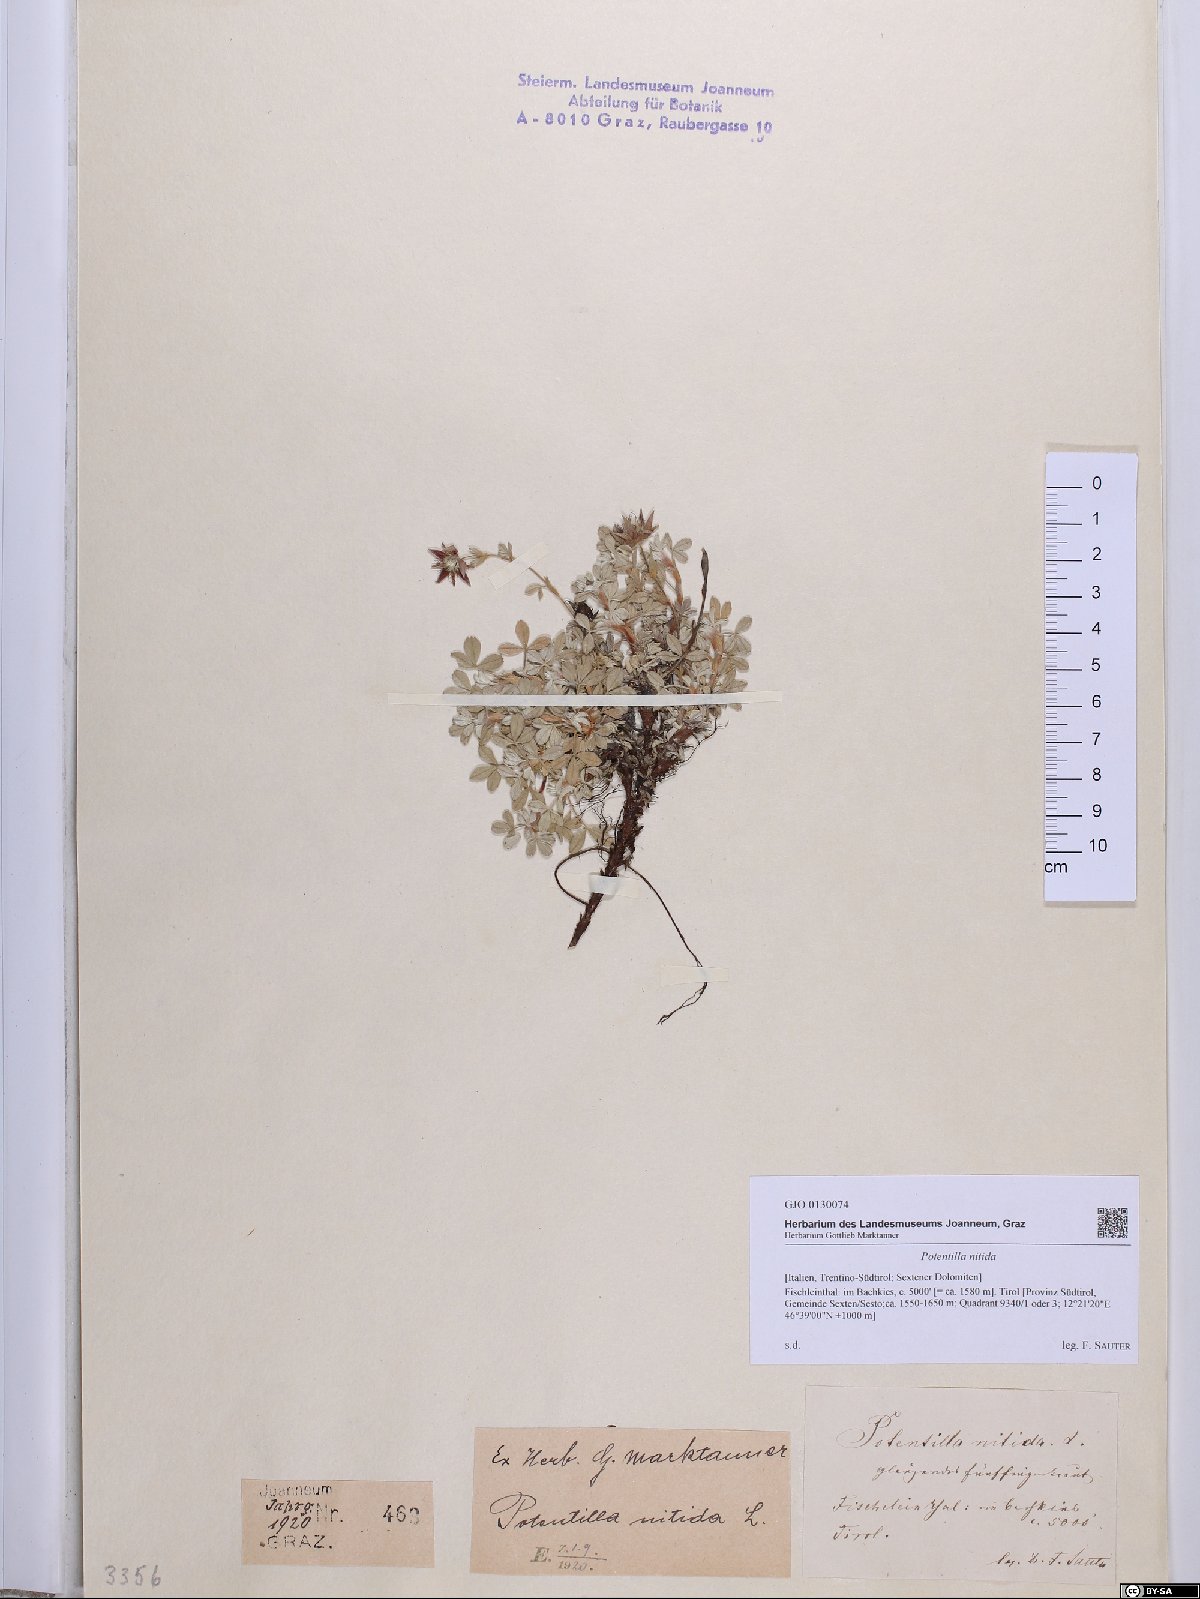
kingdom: Plantae
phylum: Tracheophyta
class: Magnoliopsida
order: Rosales
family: Rosaceae
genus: Potentilla
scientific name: Potentilla nitida
